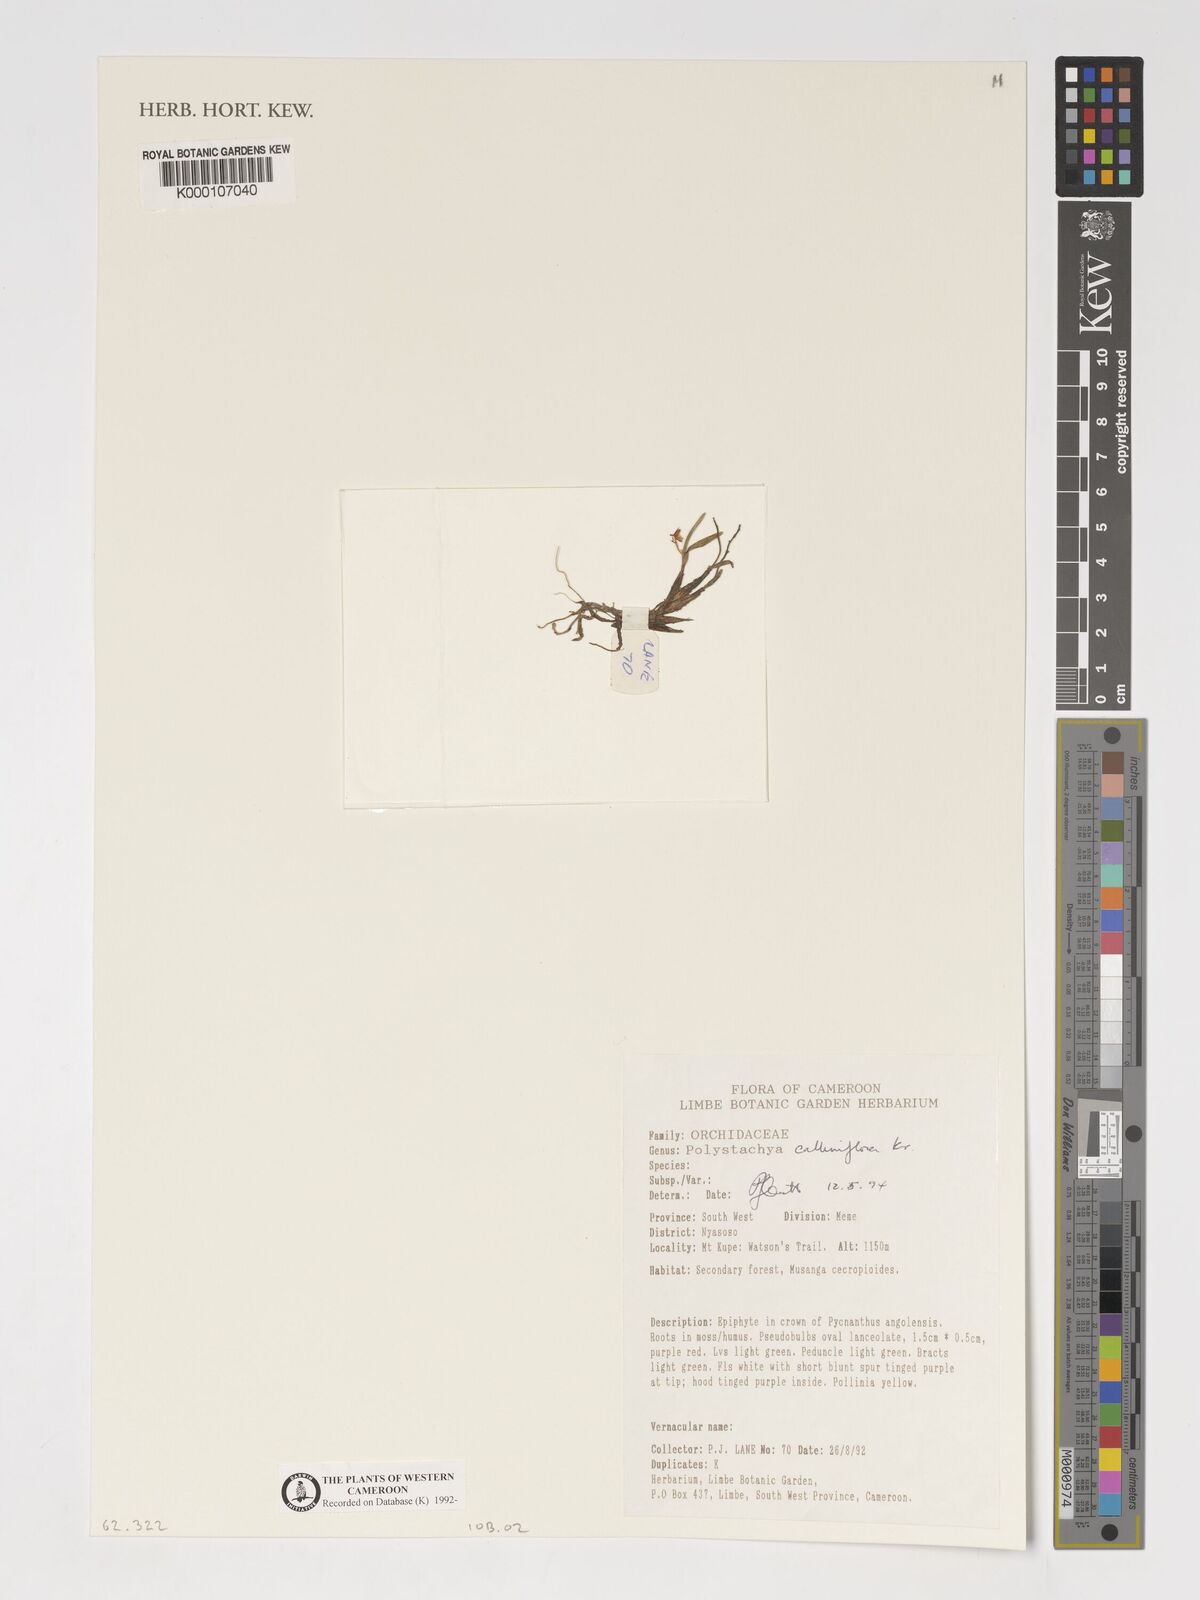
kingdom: Plantae
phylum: Tracheophyta
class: Liliopsida
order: Asparagales
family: Orchidaceae
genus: Polystachya
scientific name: Polystachya calluniflora
